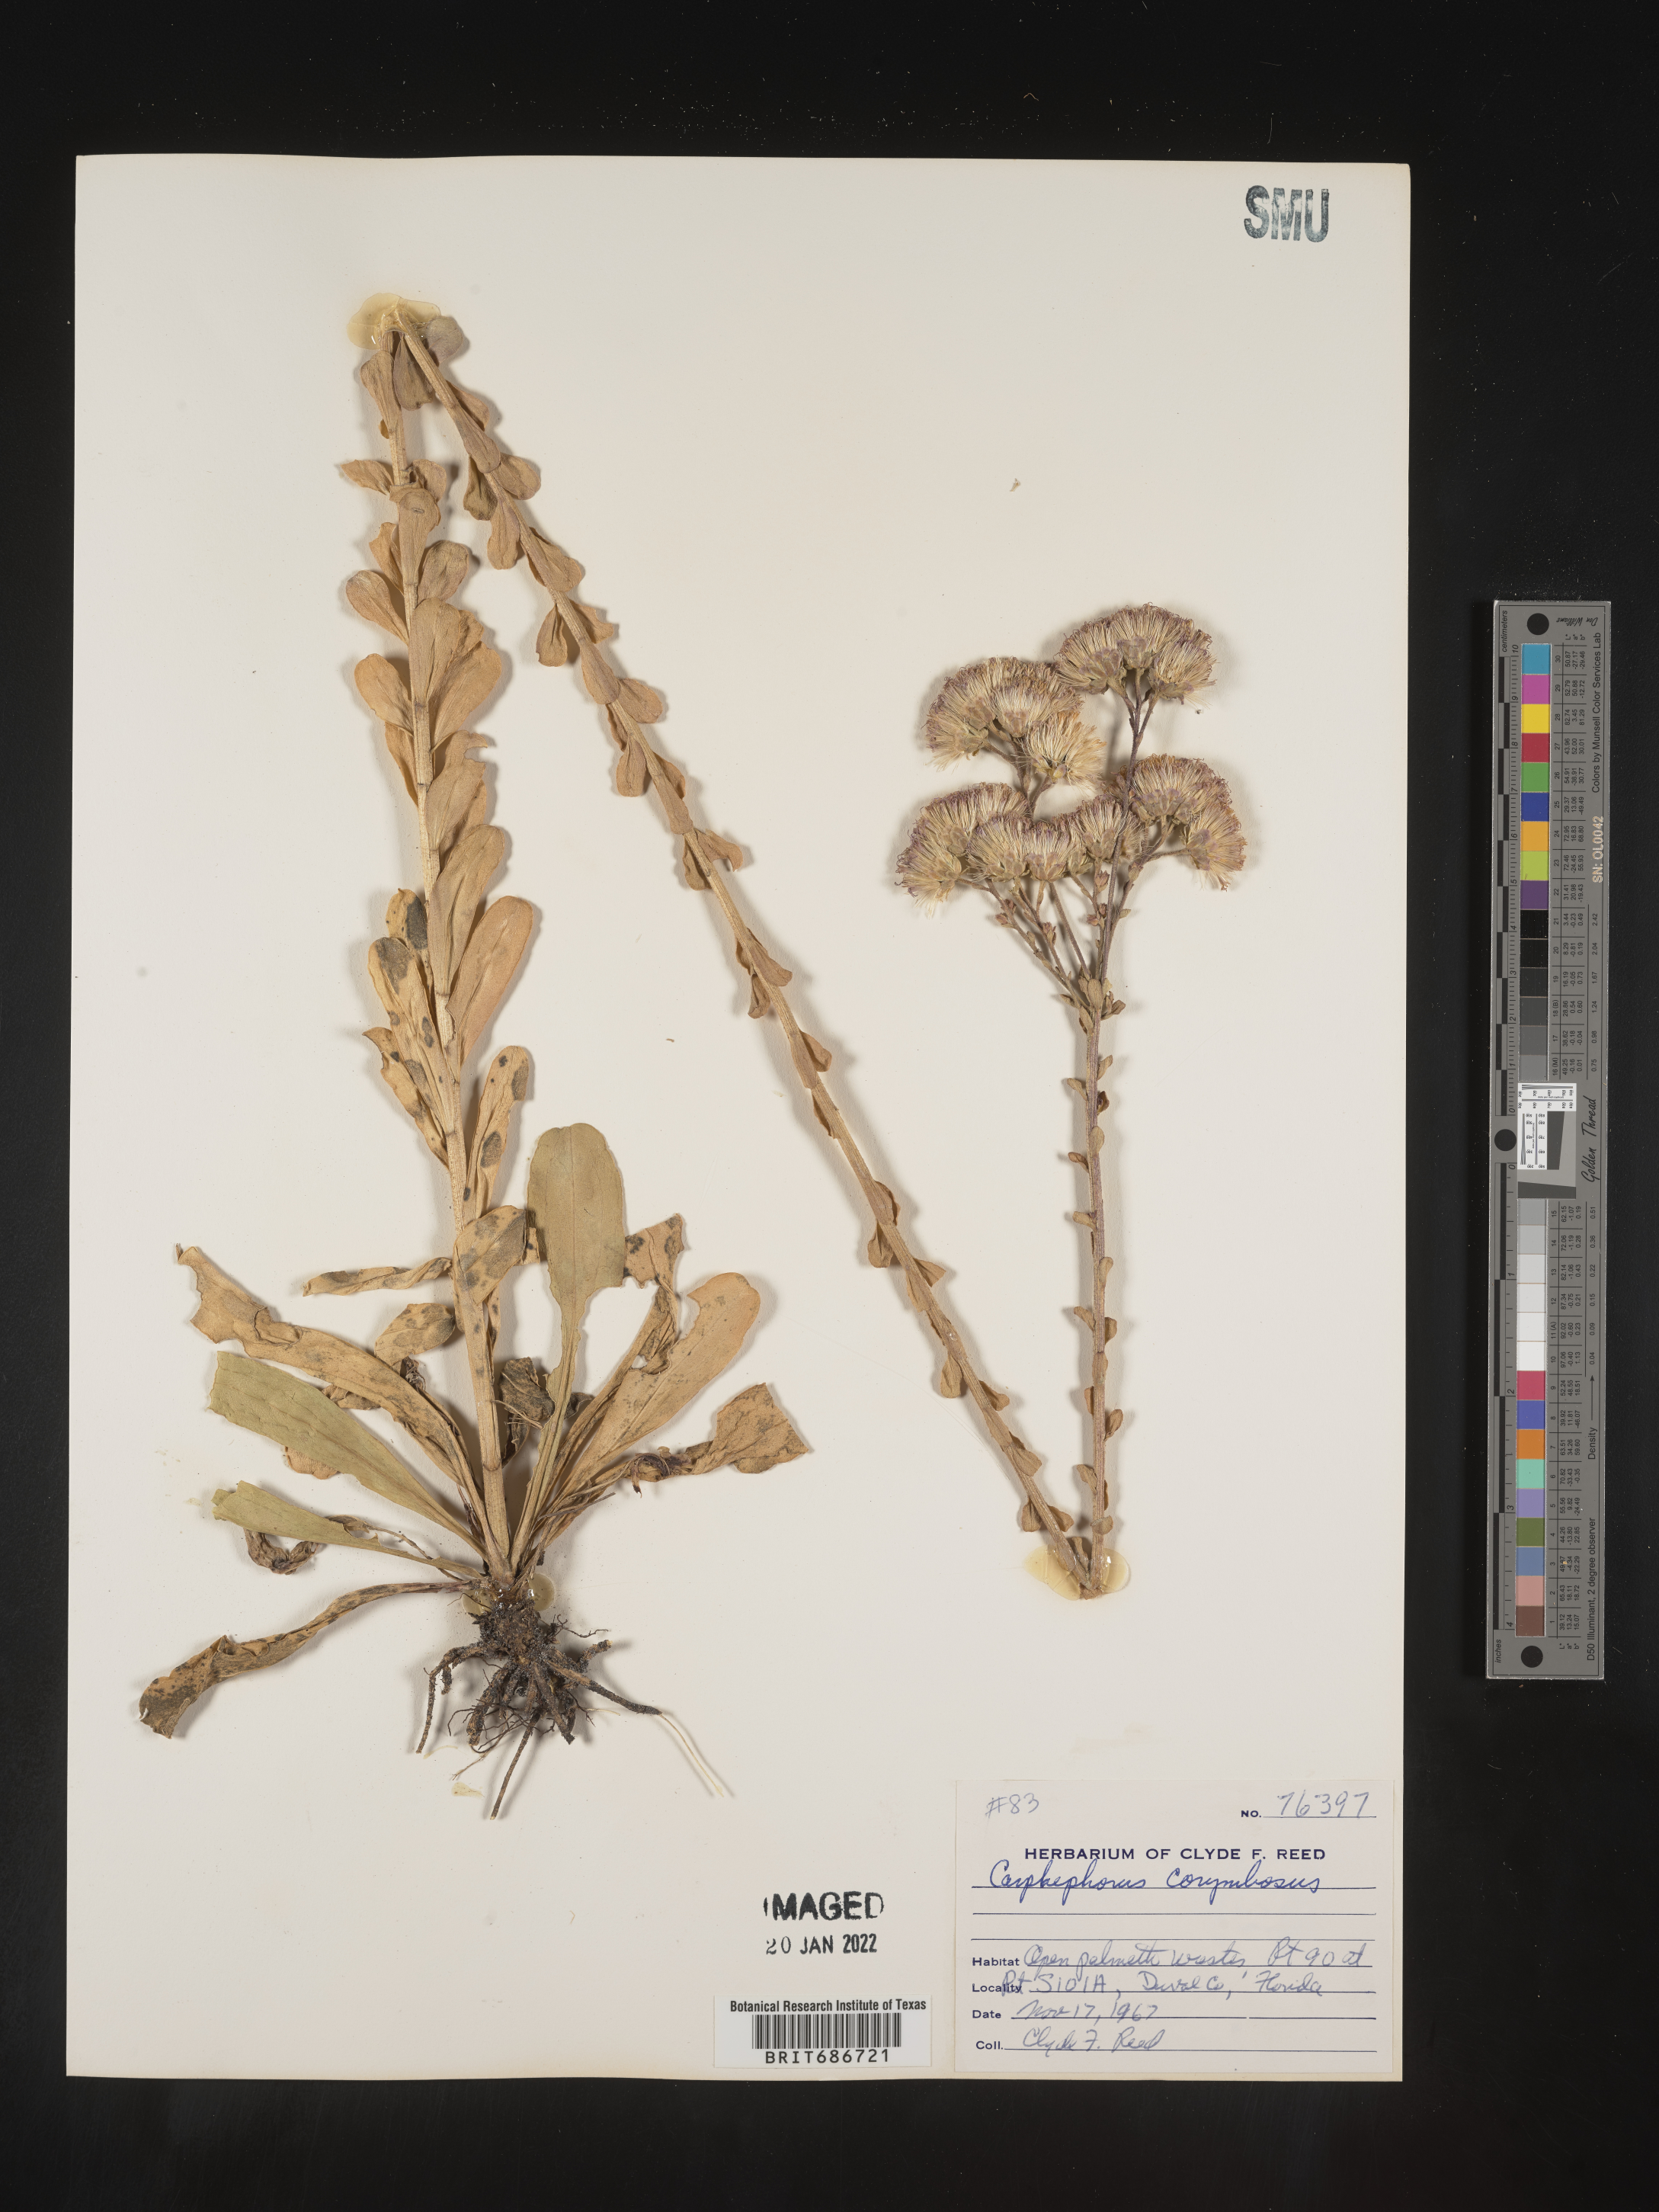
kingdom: Plantae
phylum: Tracheophyta
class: Magnoliopsida
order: Asterales
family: Asteraceae
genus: Carphephorus
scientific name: Carphephorus corymbosus
